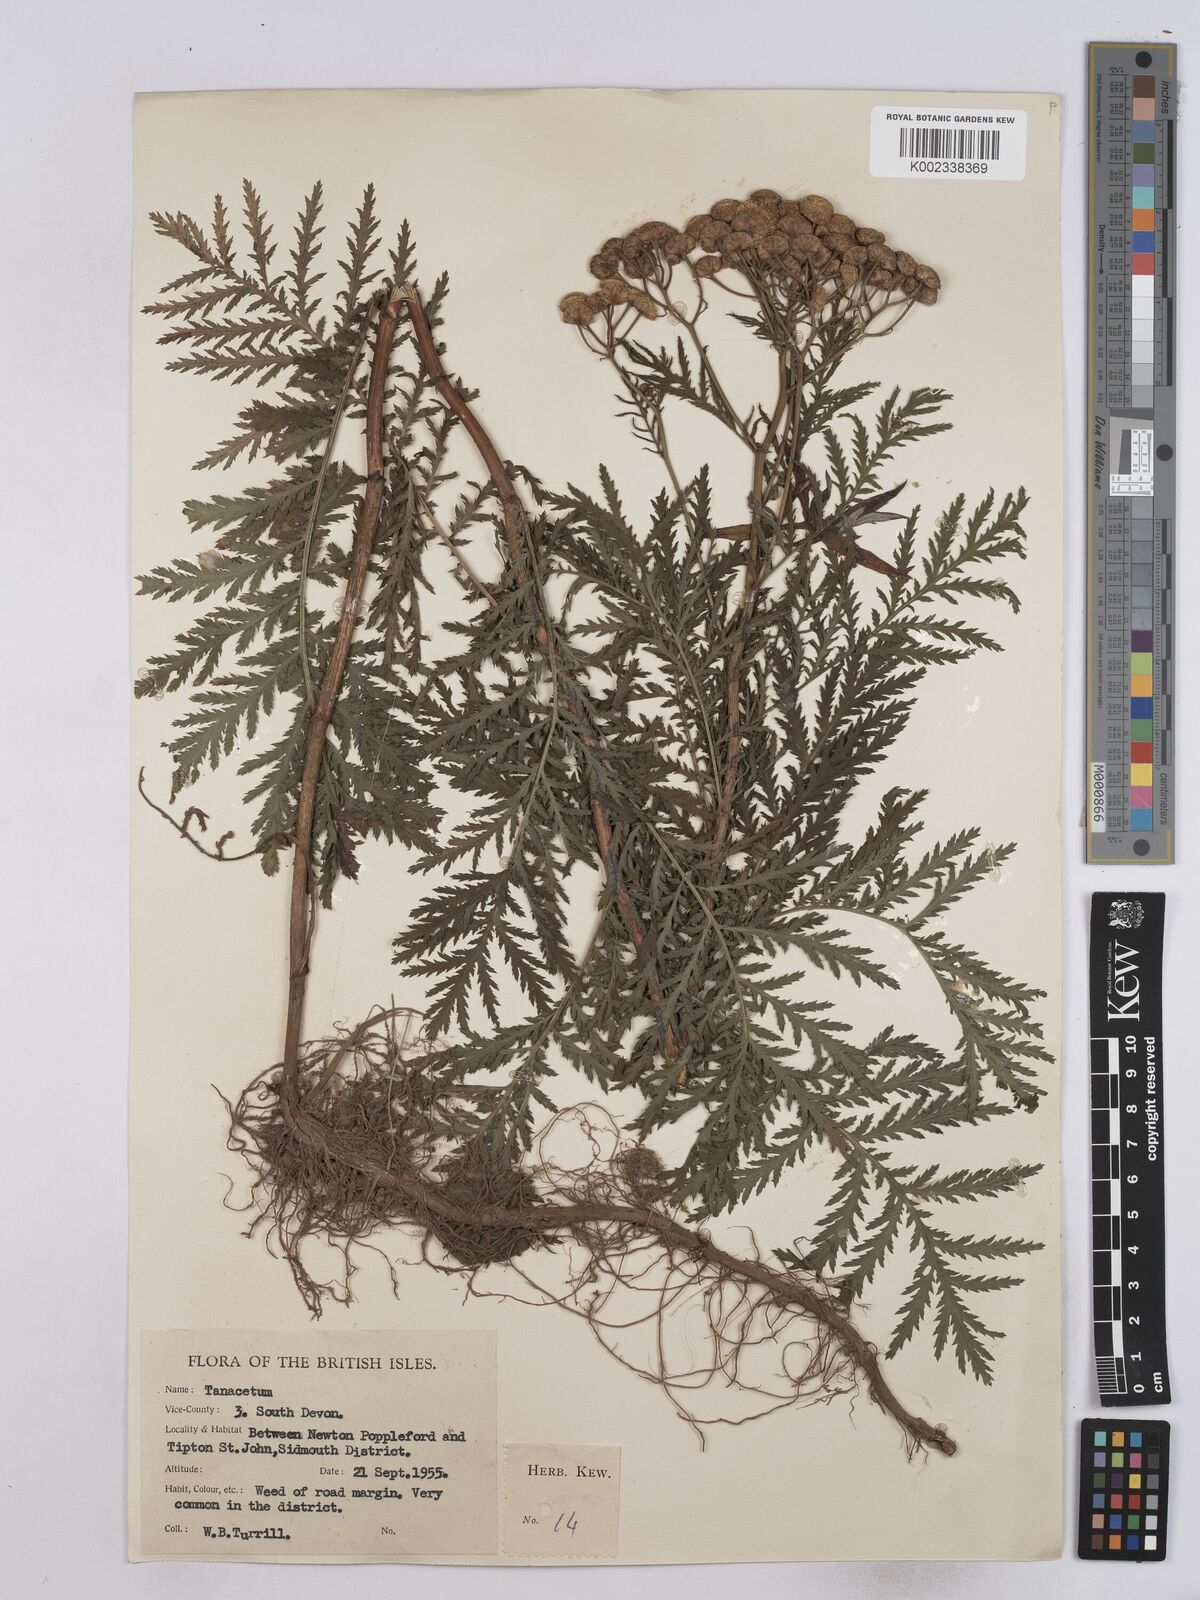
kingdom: Plantae
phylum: Tracheophyta
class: Magnoliopsida
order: Asterales
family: Asteraceae
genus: Tanacetum
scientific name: Tanacetum vulgare
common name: Common tansy
